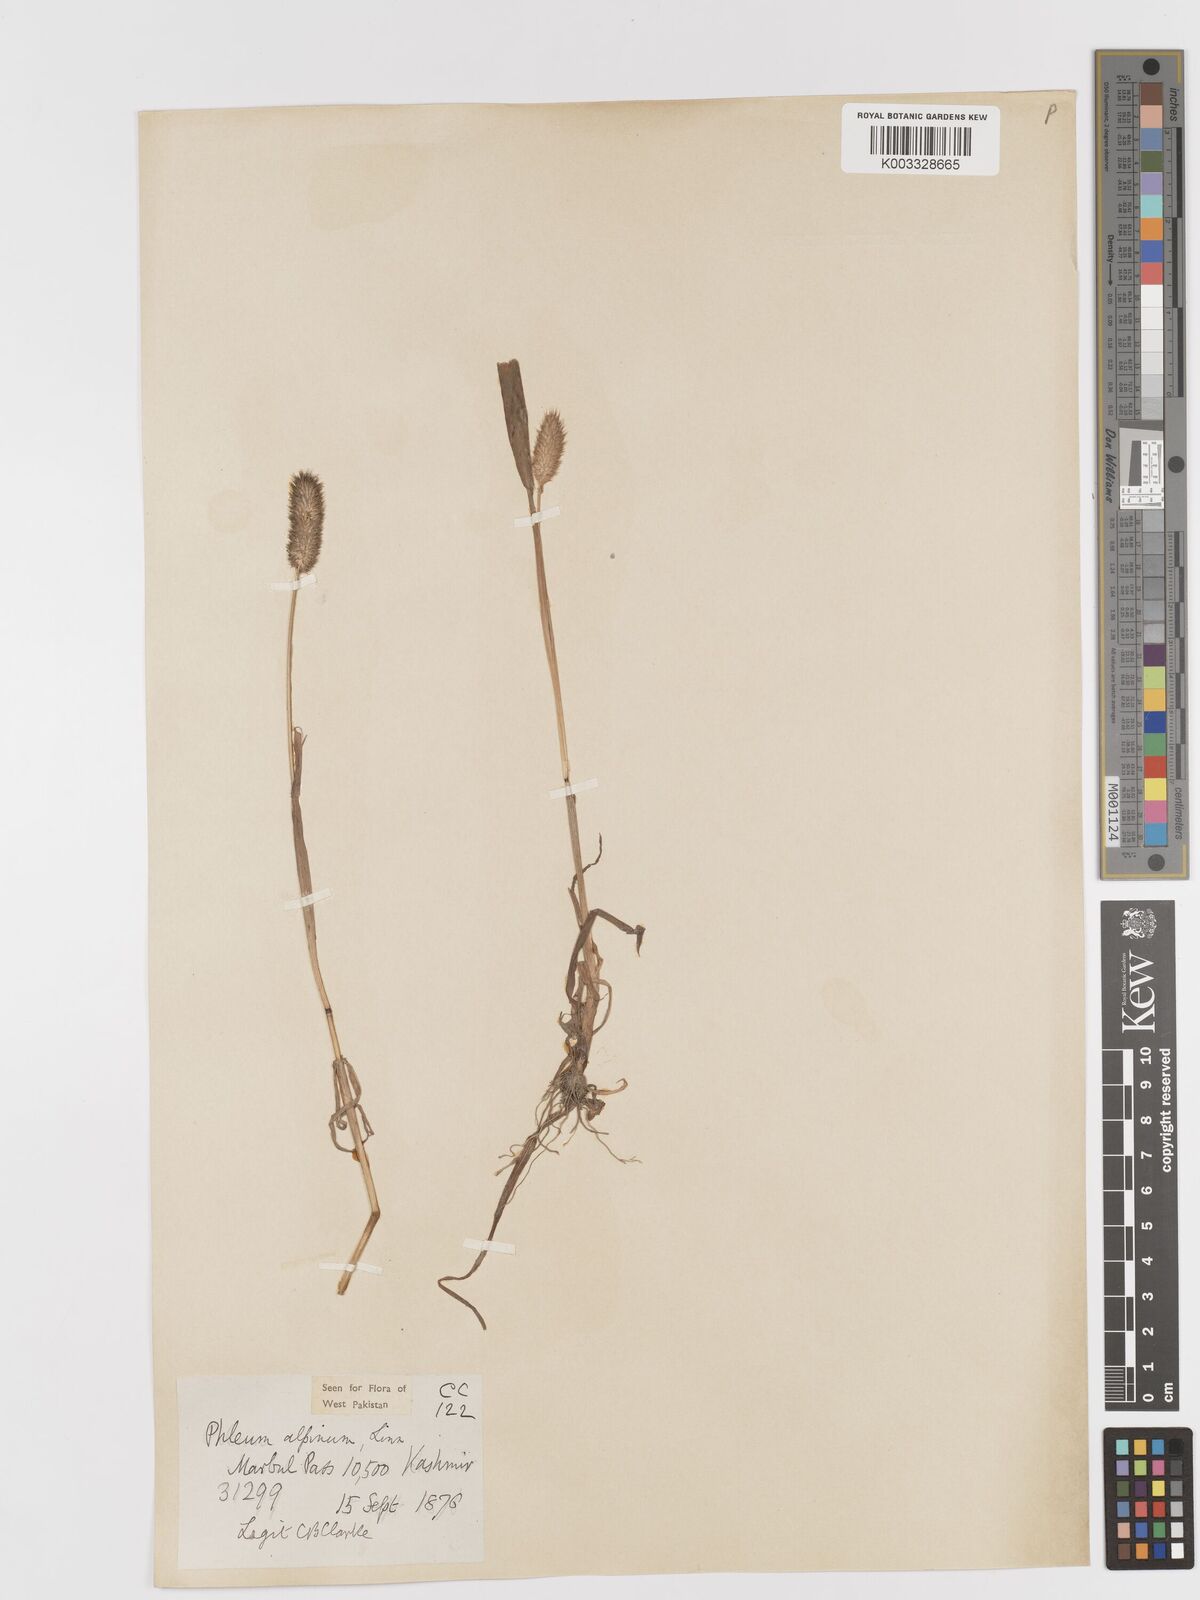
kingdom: Plantae
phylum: Tracheophyta
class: Liliopsida
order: Poales
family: Poaceae
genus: Phleum
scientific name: Phleum alpinum
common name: Alpine cat's-tail
